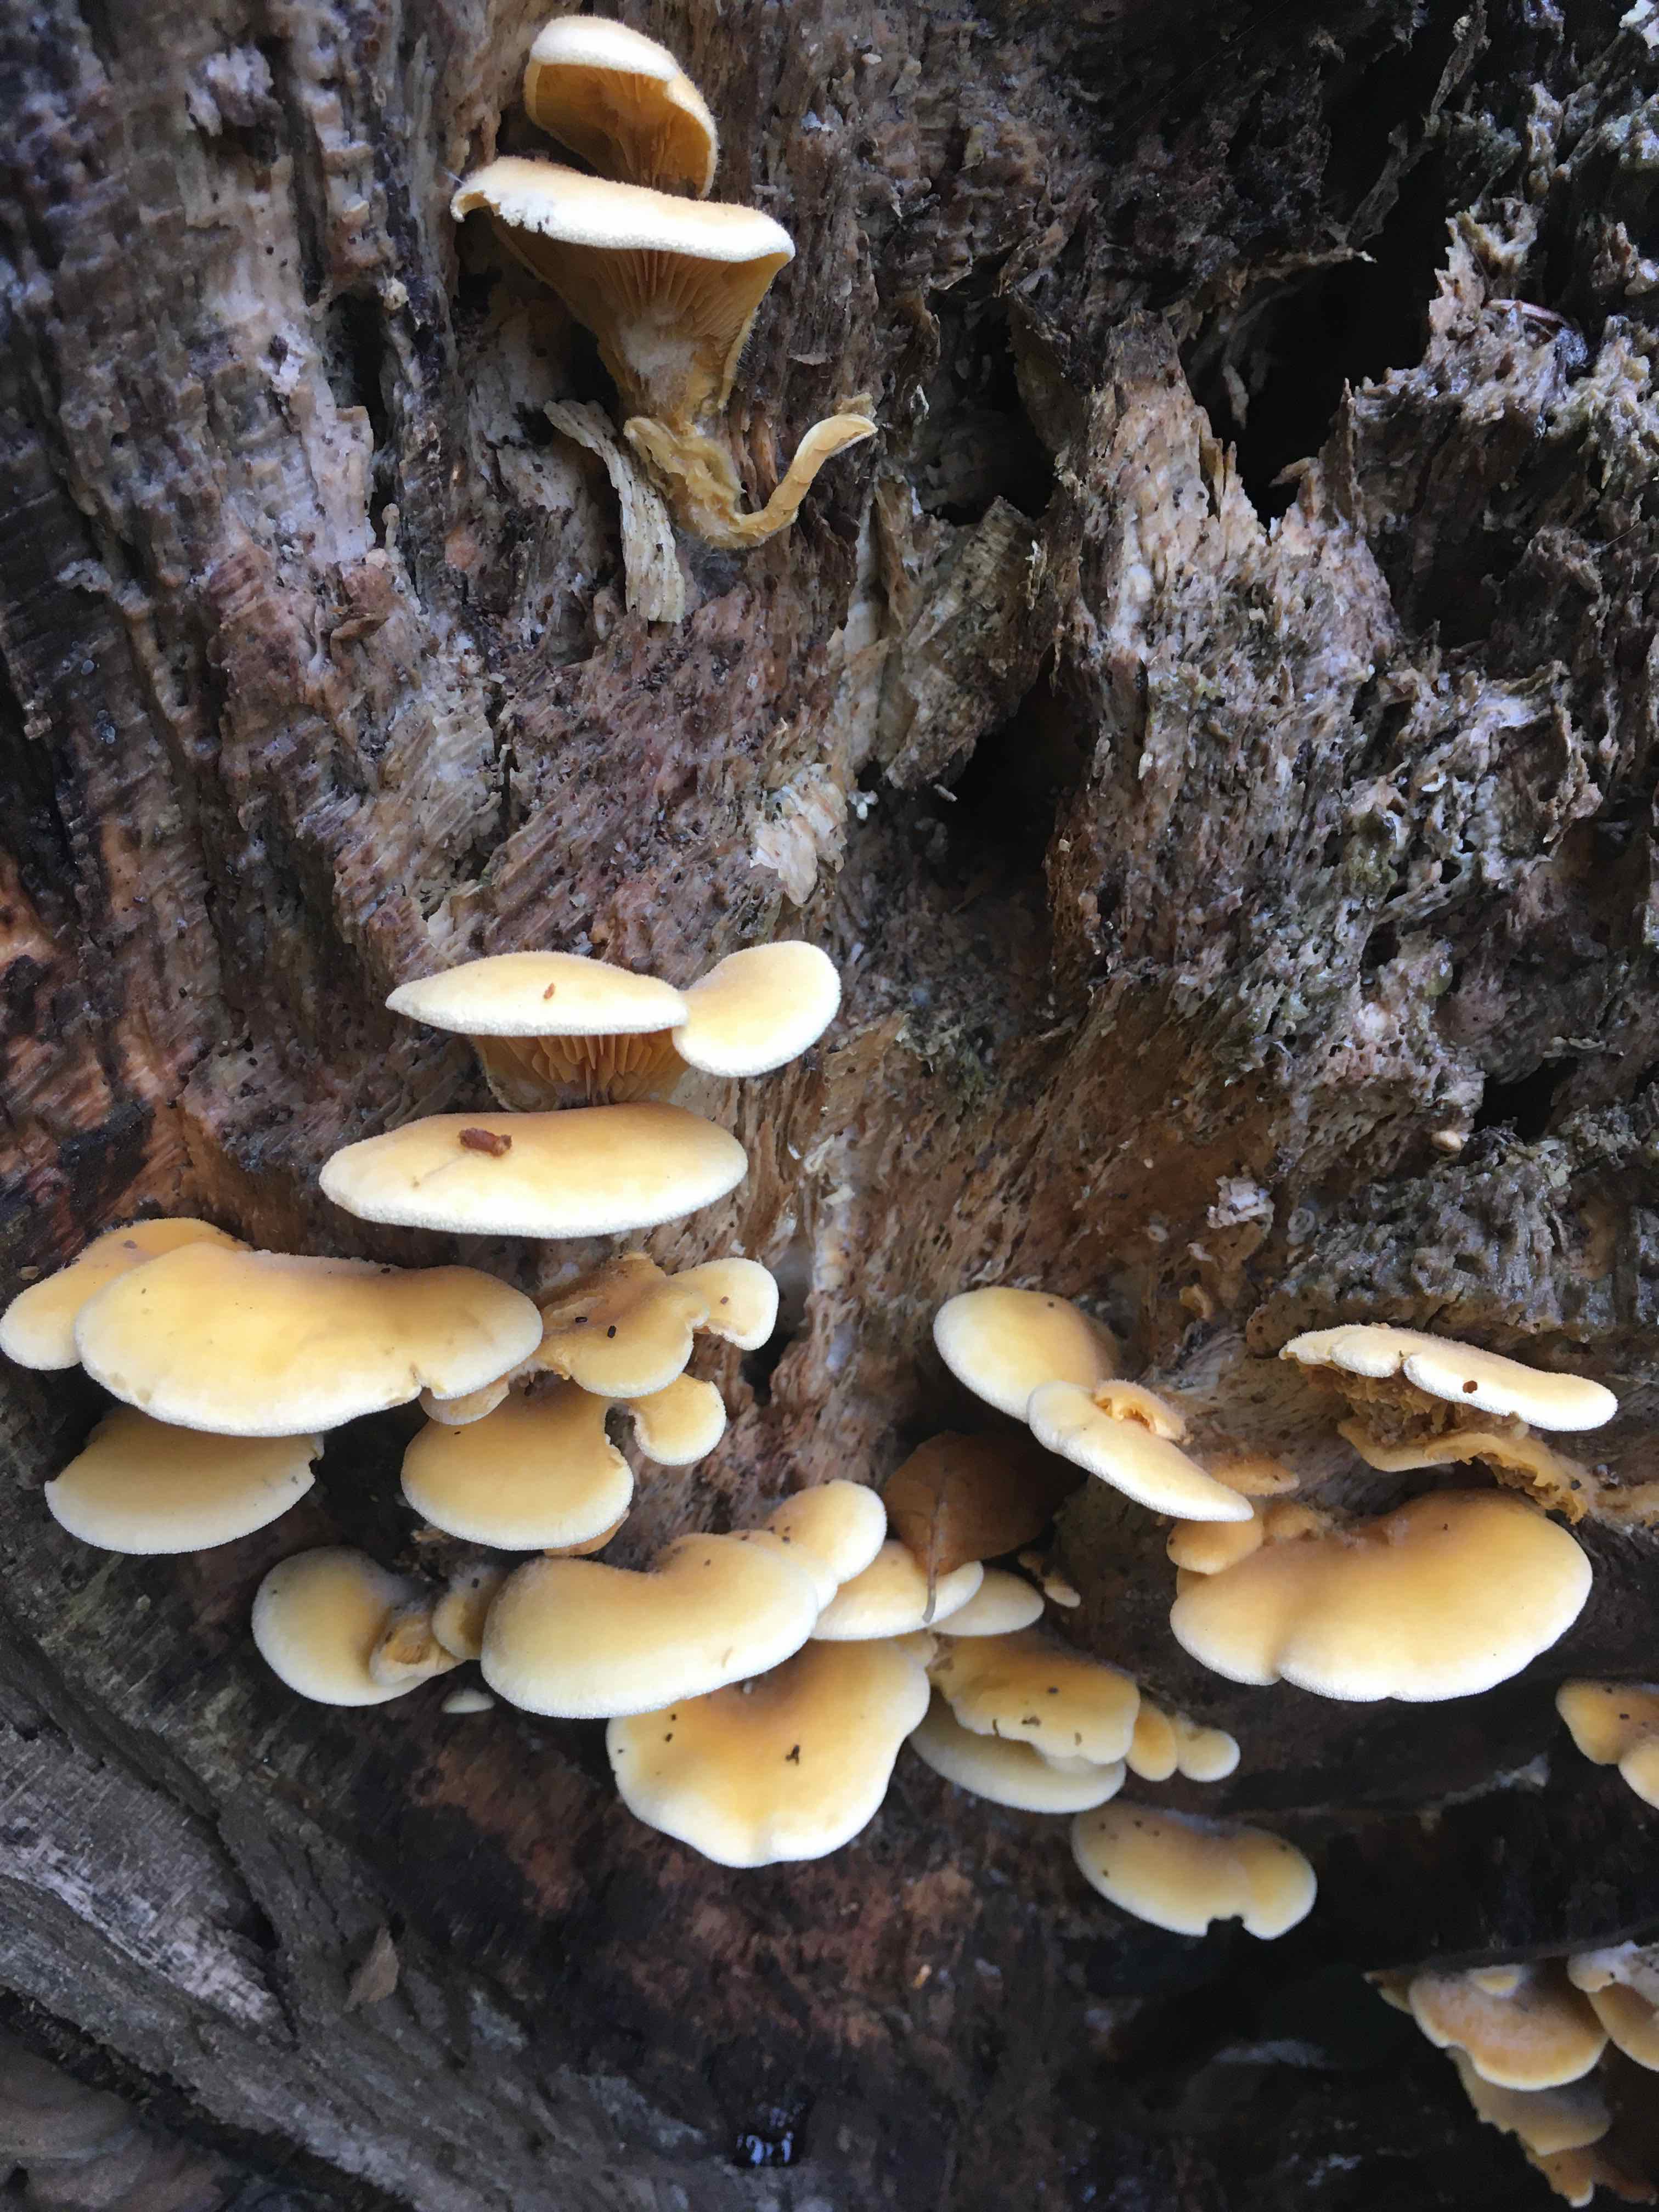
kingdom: Fungi
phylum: Basidiomycota
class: Agaricomycetes
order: Agaricales
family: Phyllotopsidaceae
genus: Phyllotopsis
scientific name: Phyllotopsis nidulans
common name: okkerblad
